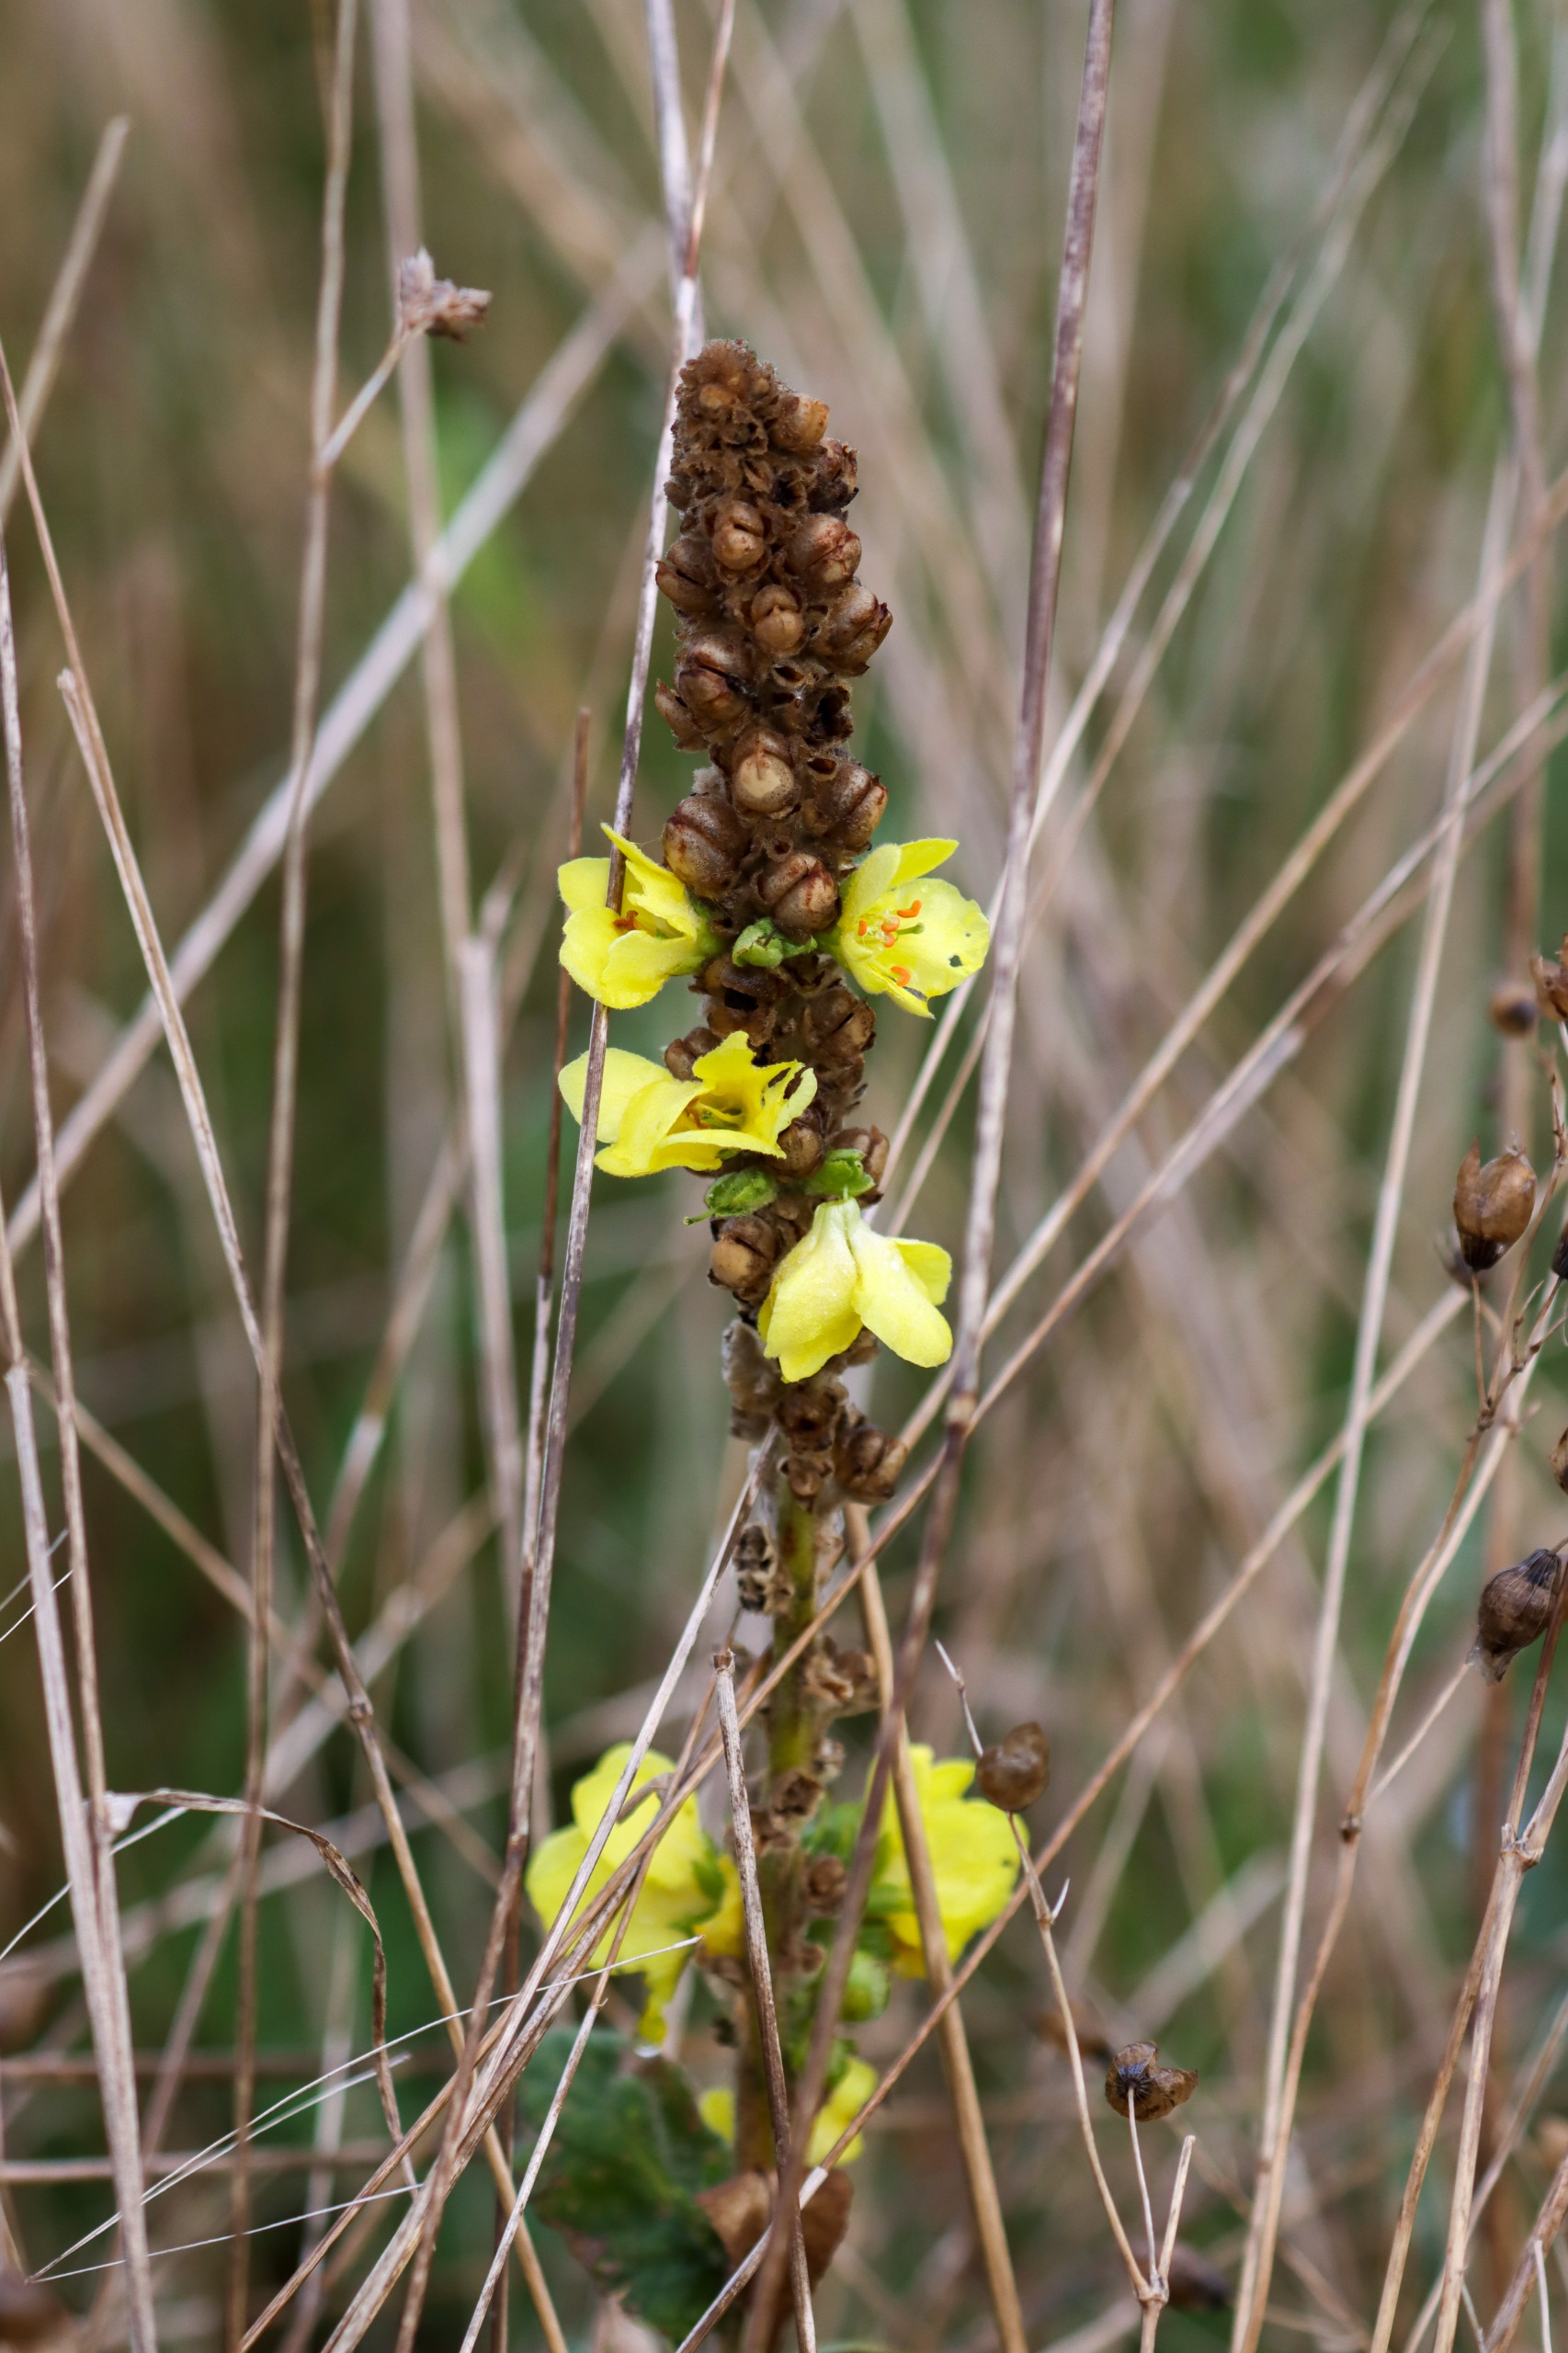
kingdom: Plantae
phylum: Tracheophyta
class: Magnoliopsida
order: Lamiales
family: Scrophulariaceae
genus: Verbascum
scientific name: Verbascum thapsus
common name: Filtbladet kongelys
